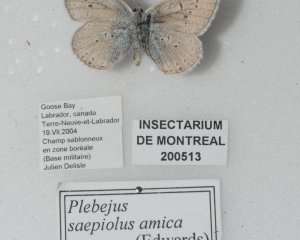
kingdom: Animalia
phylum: Arthropoda
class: Insecta
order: Lepidoptera
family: Lycaenidae
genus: Plebejus
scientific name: Plebejus saepiolus
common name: Greenish Blue
